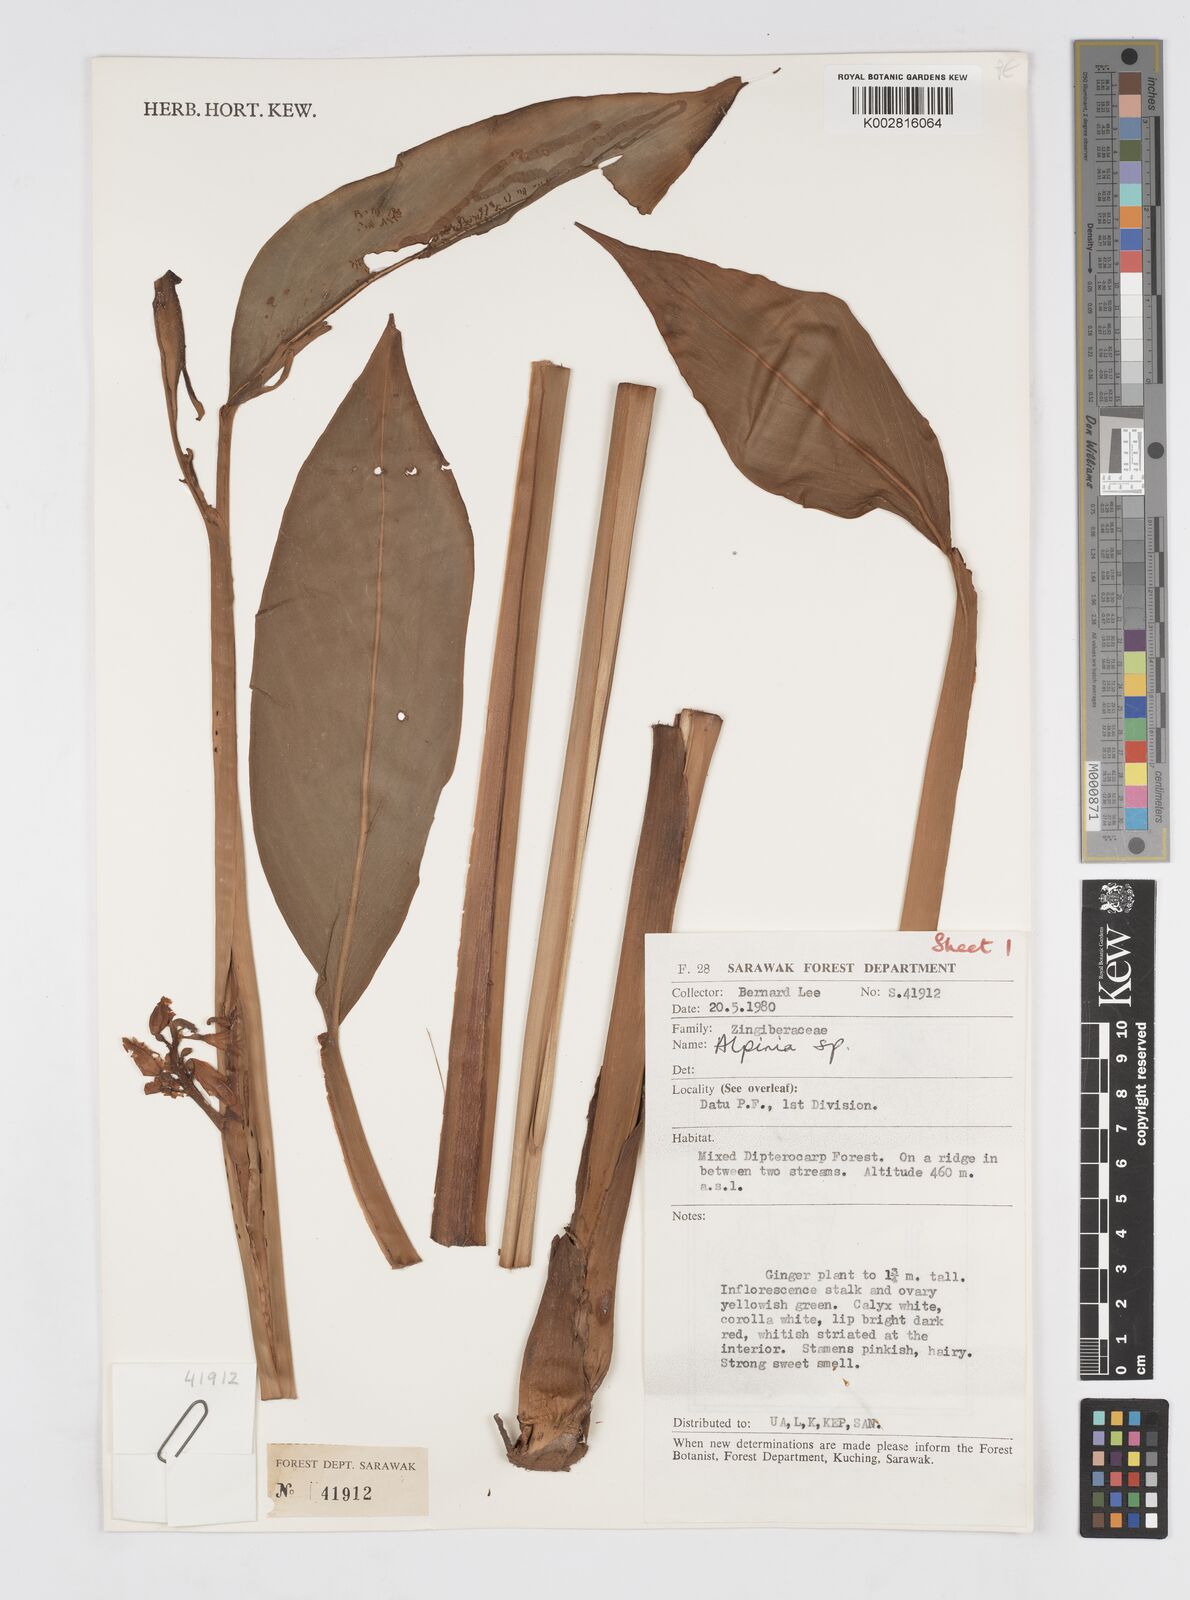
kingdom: Plantae
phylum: Tracheophyta
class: Liliopsida
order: Zingiberales
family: Zingiberaceae
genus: Alpinia
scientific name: Alpinia
